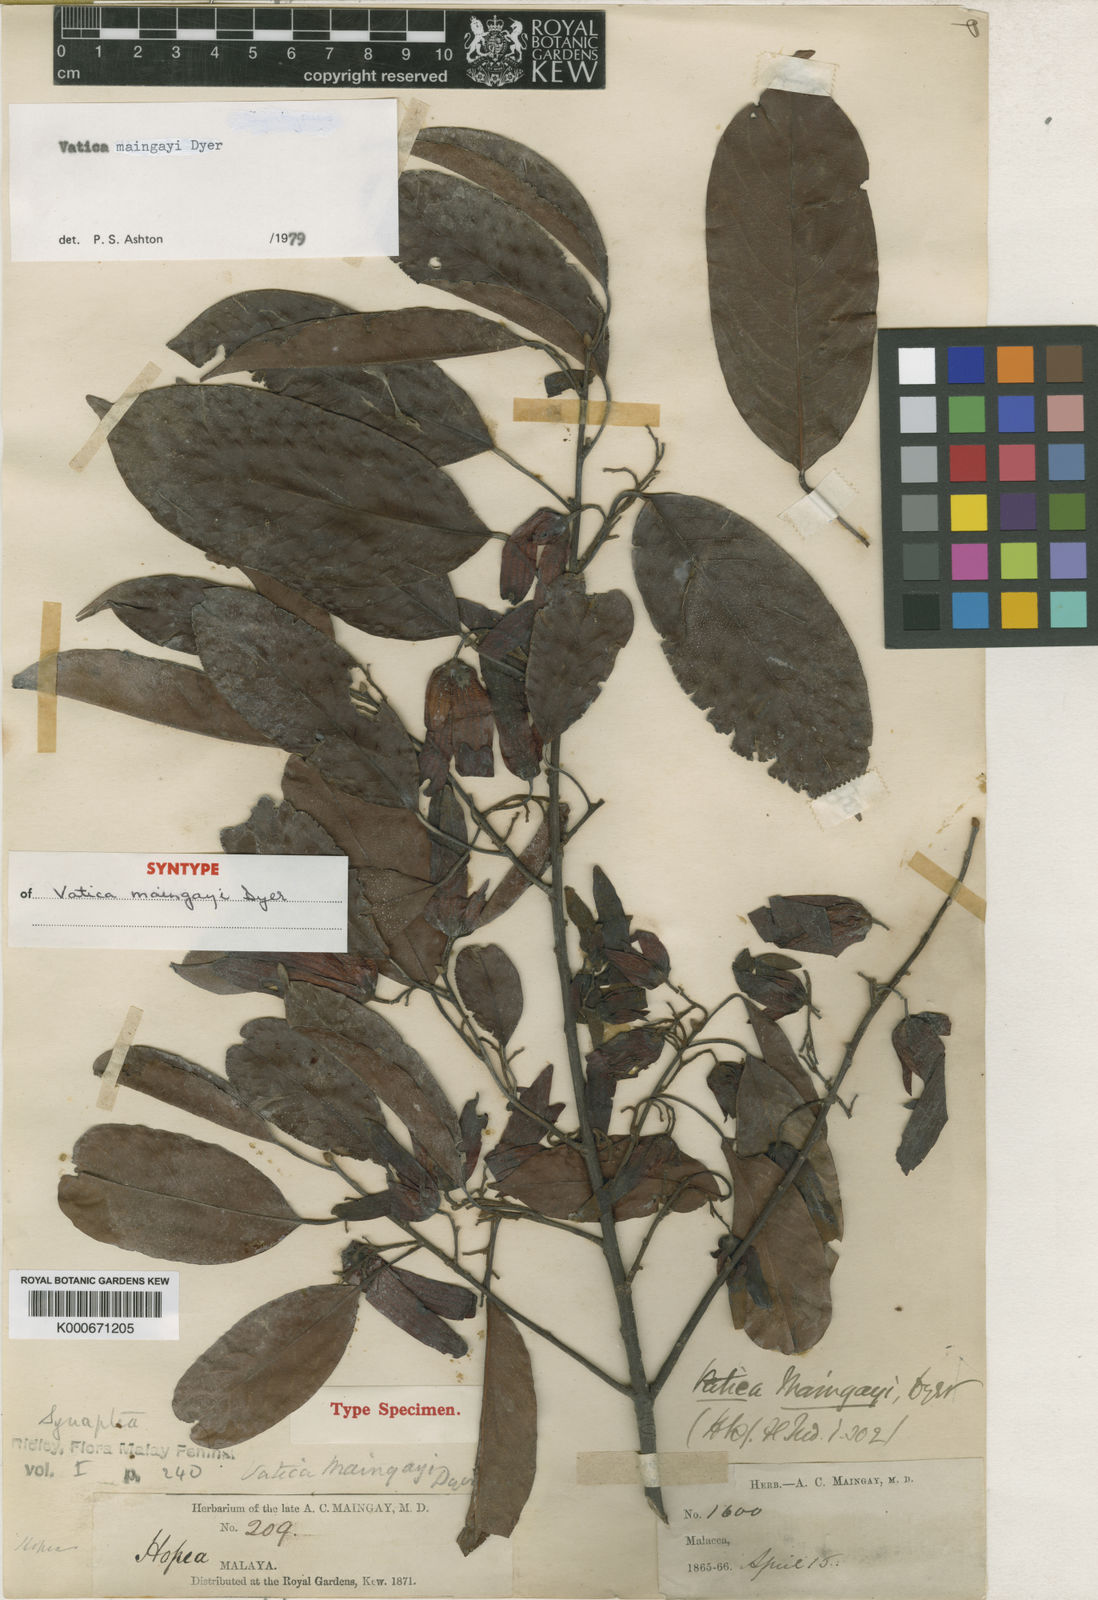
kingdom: Plantae
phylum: Tracheophyta
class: Magnoliopsida
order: Malvales
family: Dipterocarpaceae
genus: Vatica
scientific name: Vatica maingayi
